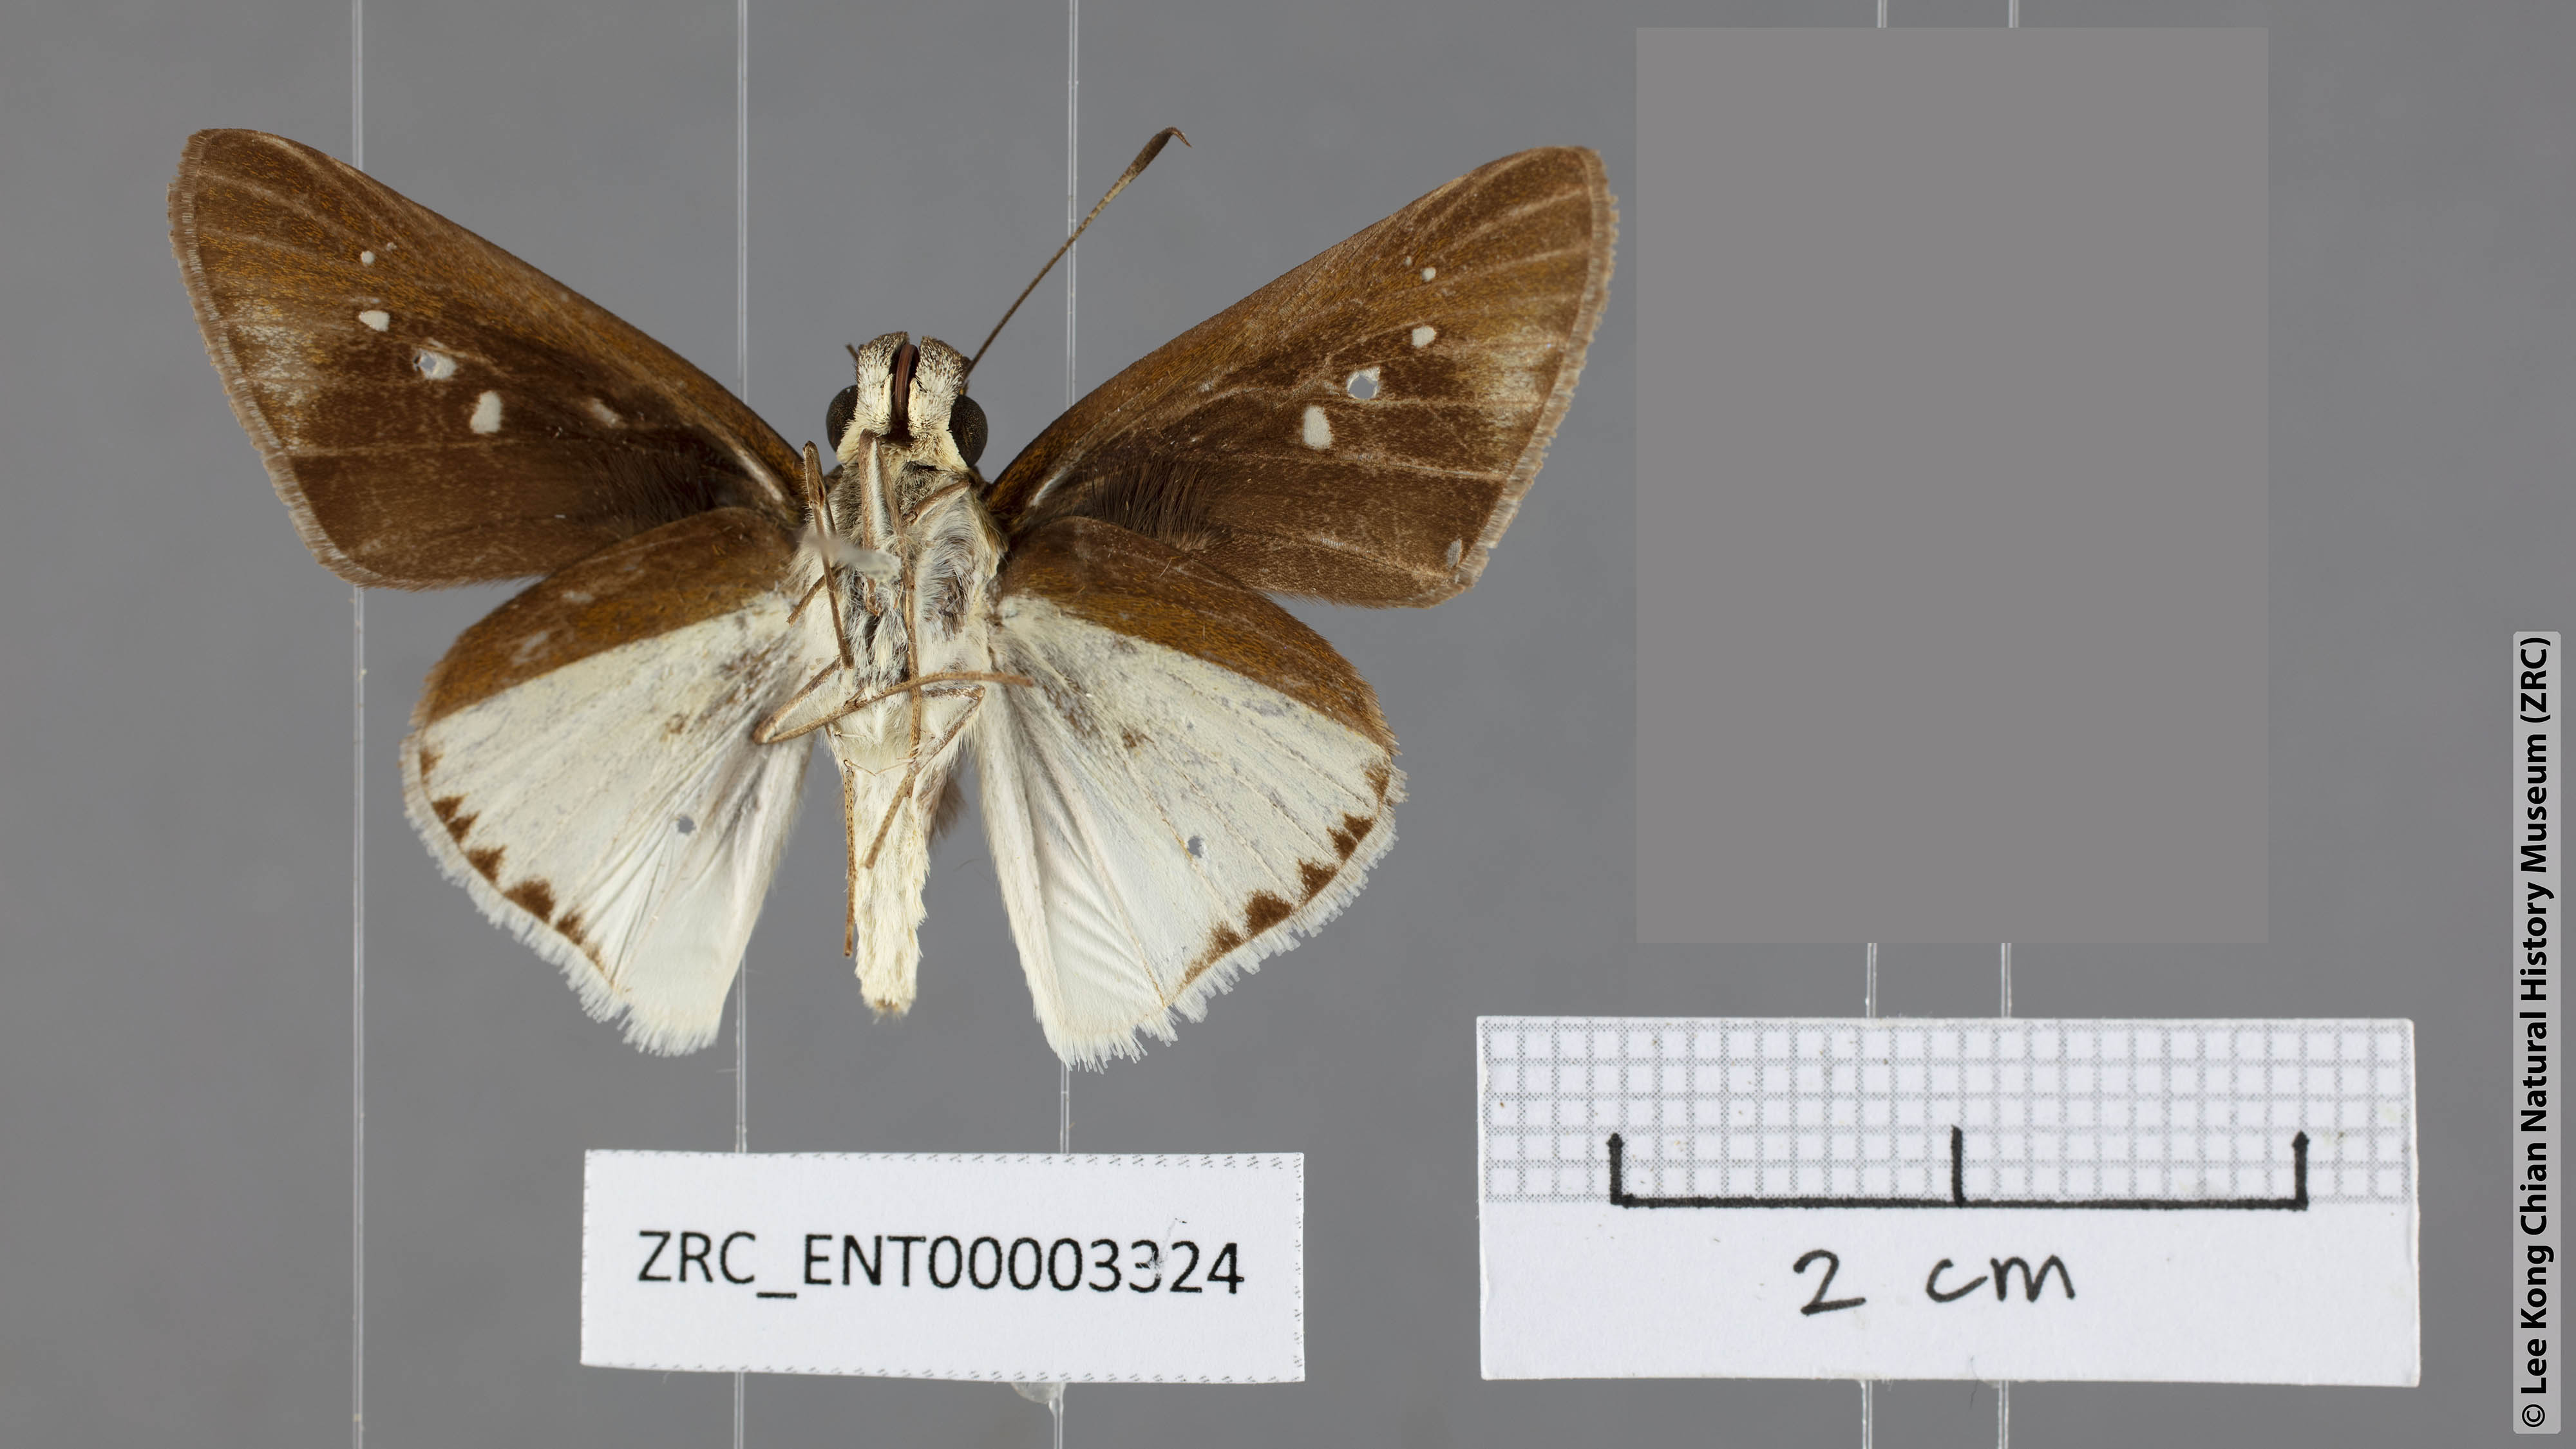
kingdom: Animalia
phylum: Arthropoda
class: Insecta
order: Lepidoptera
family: Hesperiidae
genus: Iton
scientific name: Iton semamora
